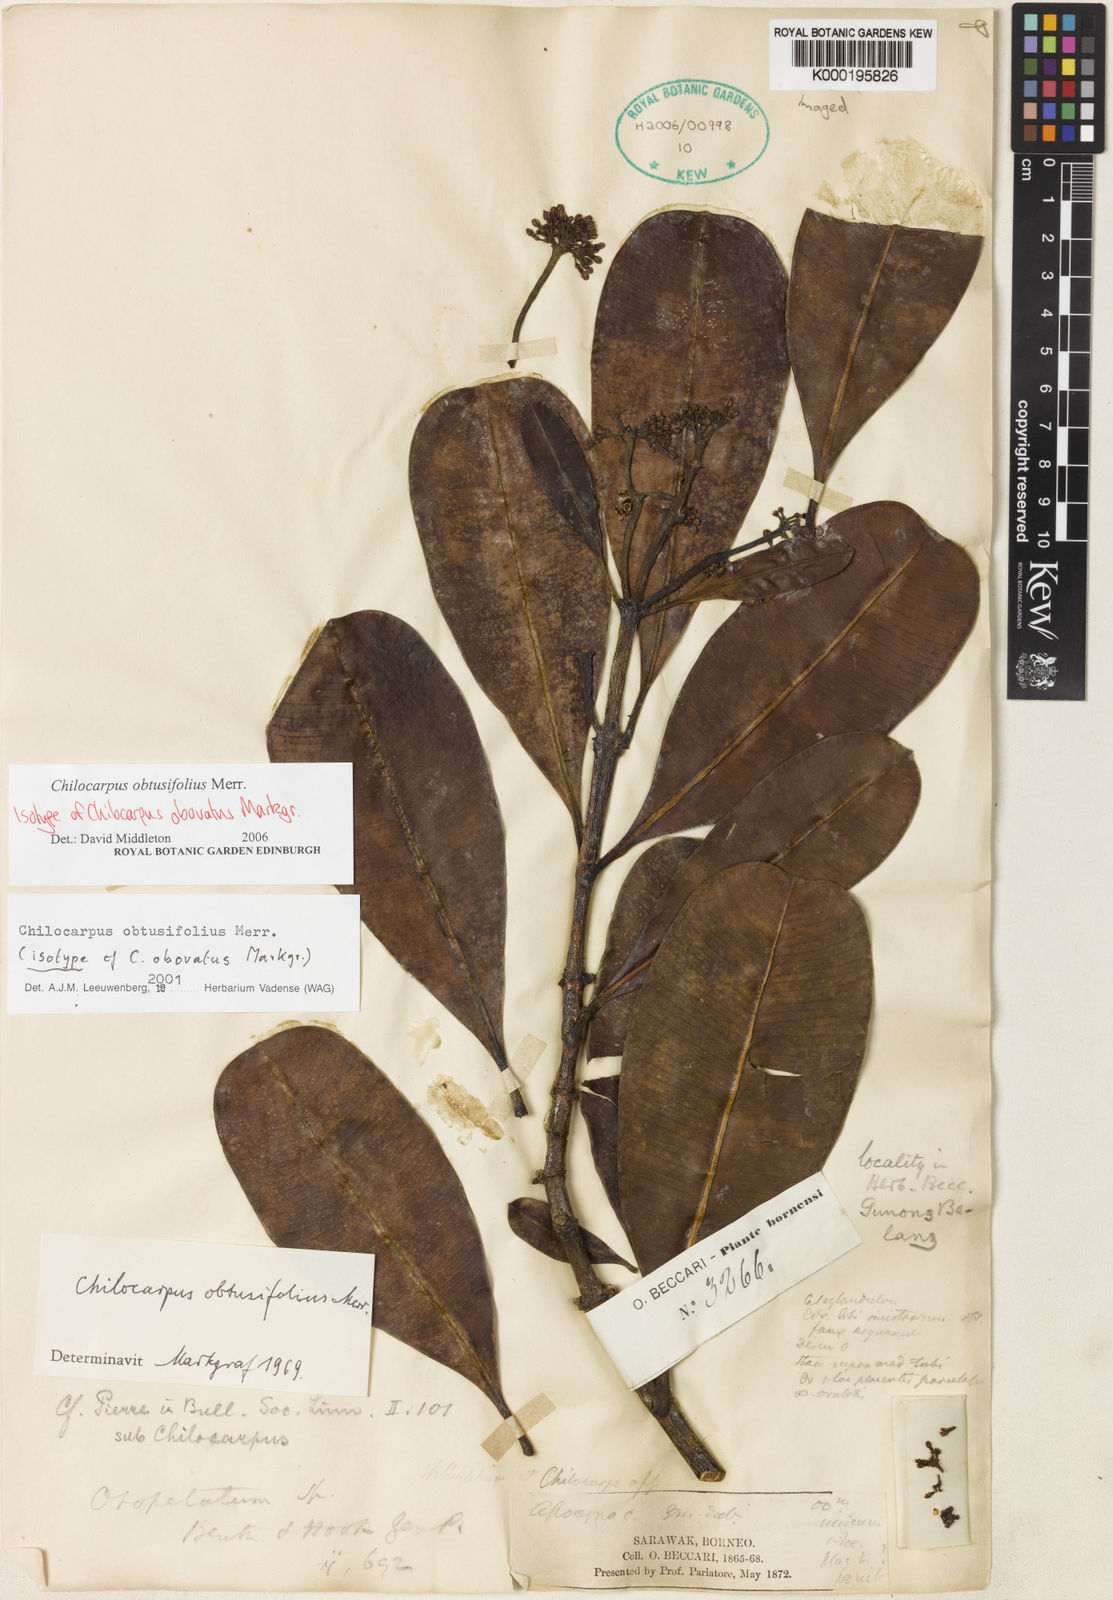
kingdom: Plantae
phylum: Tracheophyta
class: Magnoliopsida
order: Gentianales
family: Apocynaceae
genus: Chilocarpus
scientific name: Chilocarpus obtusifolius
